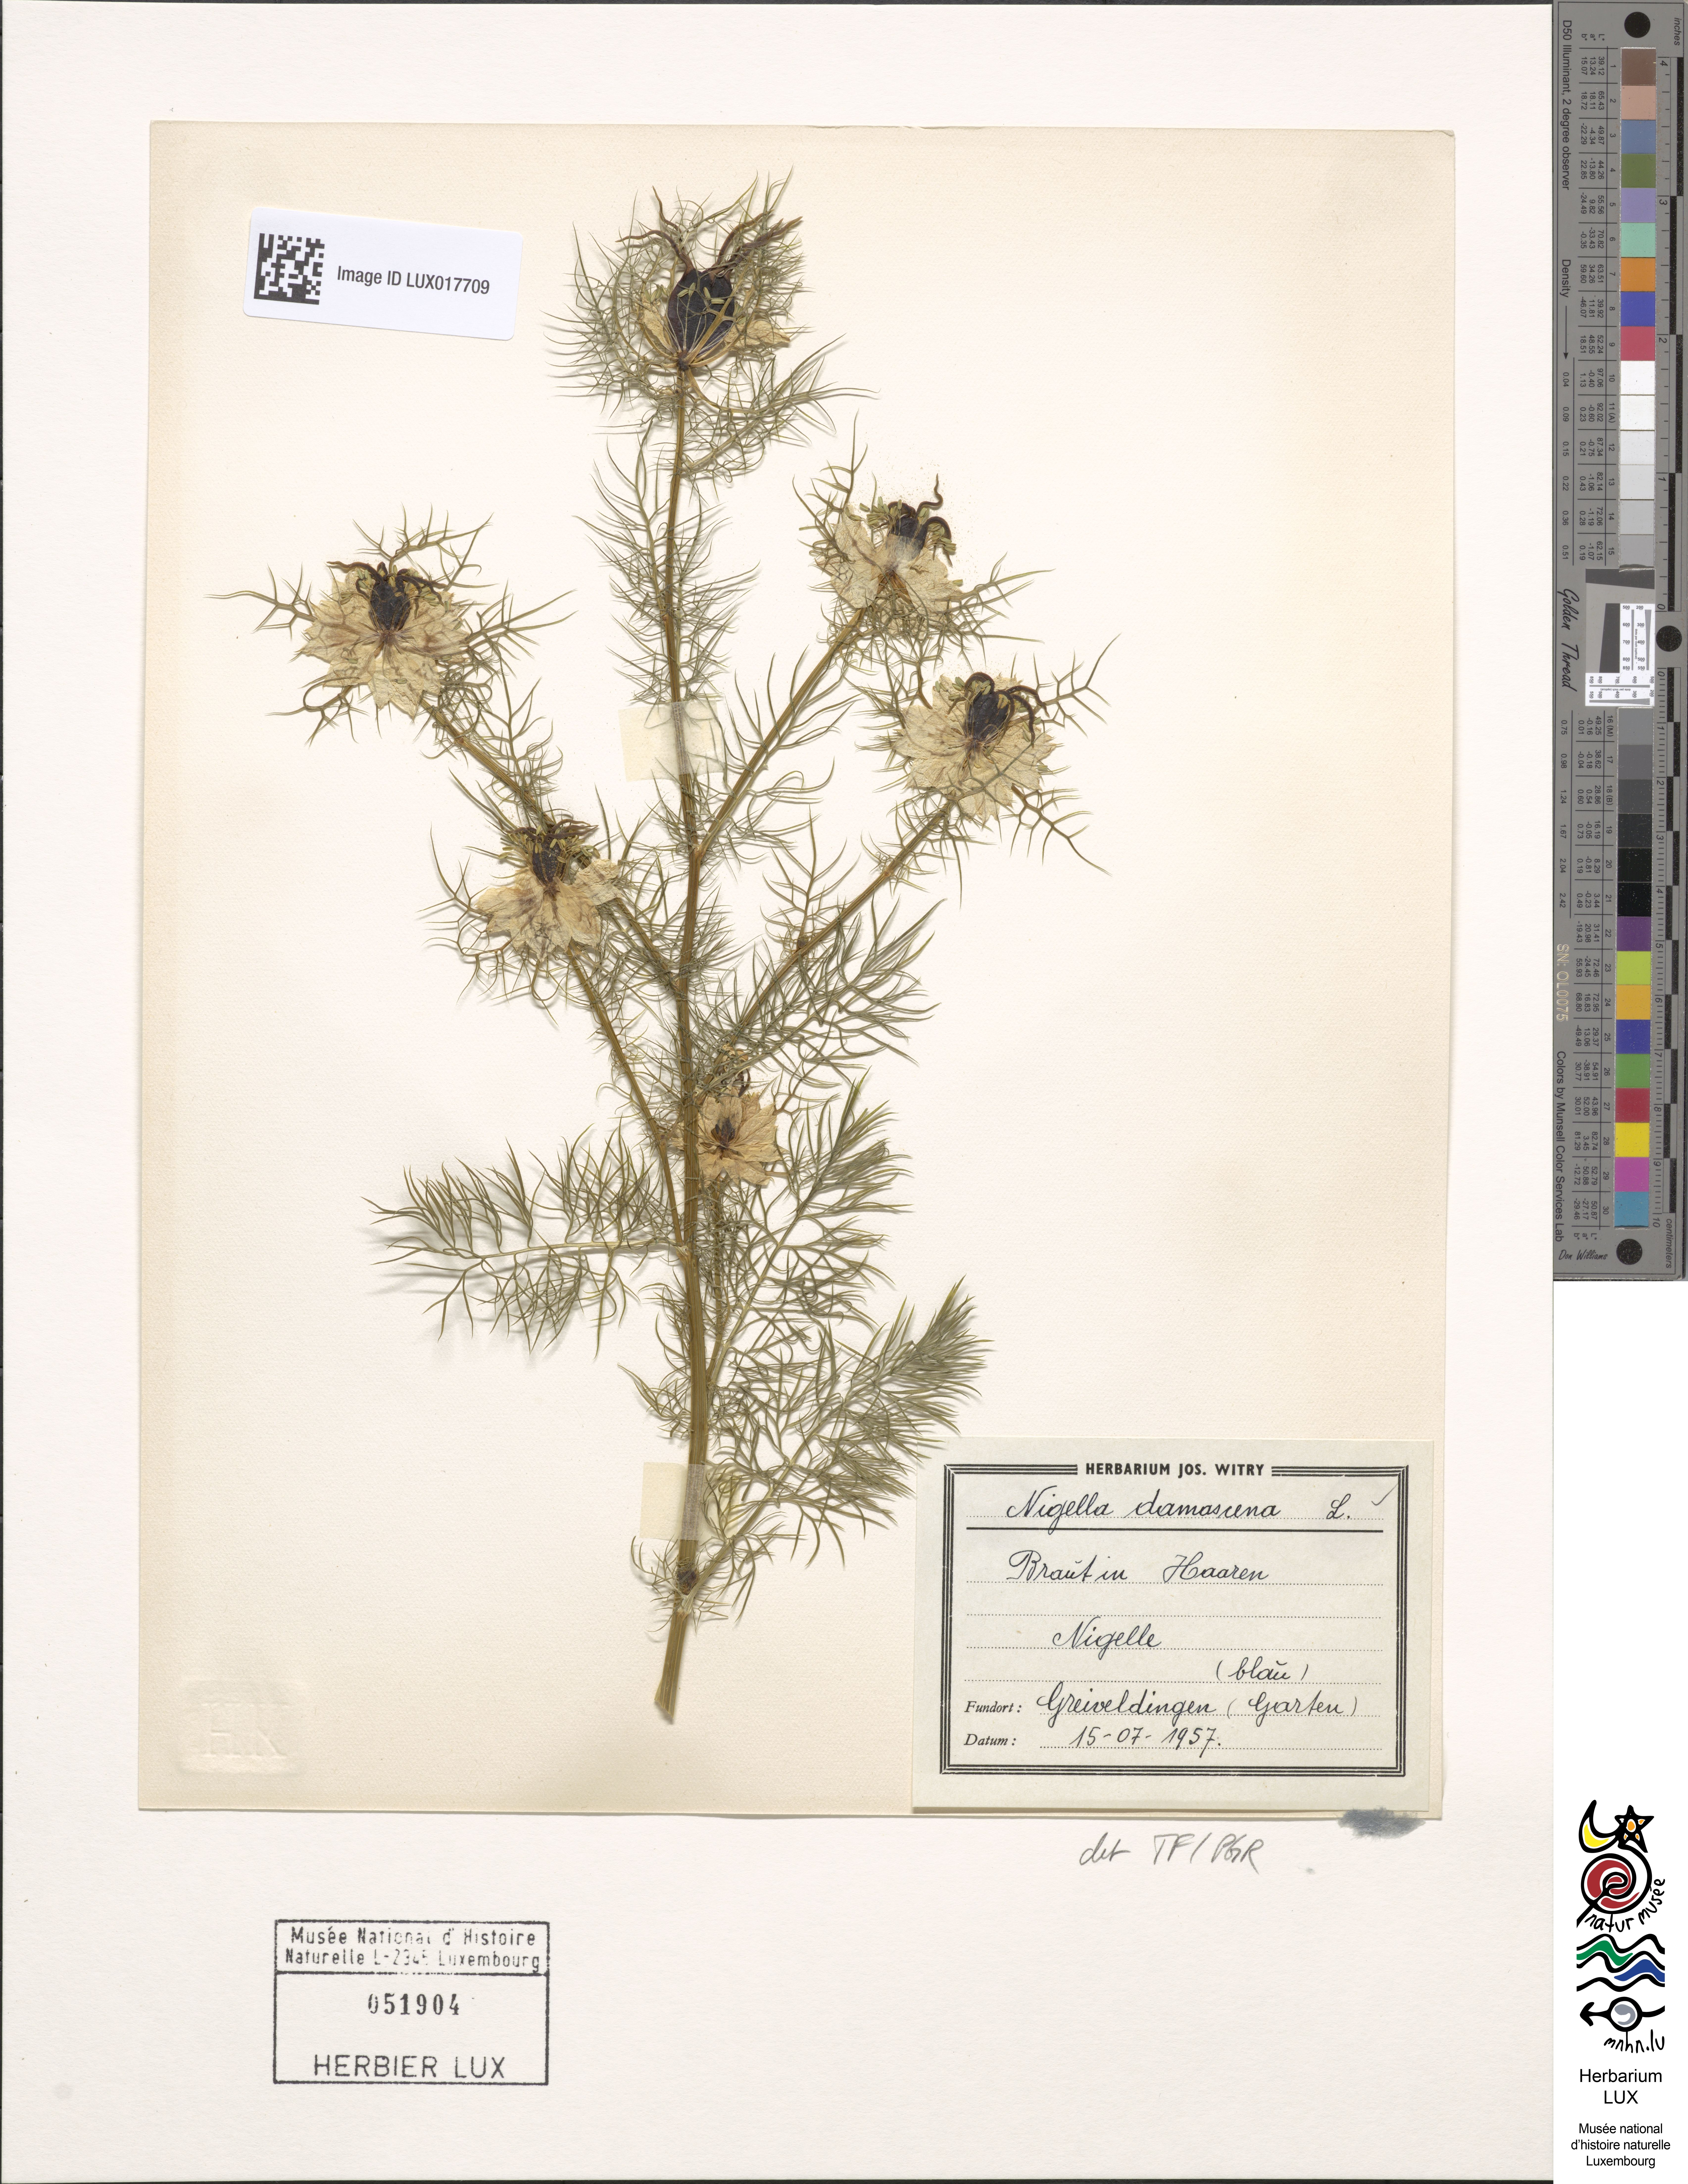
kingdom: Plantae
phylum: Tracheophyta
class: Magnoliopsida
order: Ranunculales
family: Ranunculaceae
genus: Nigella
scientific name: Nigella damascena
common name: Love-in-a-mist
